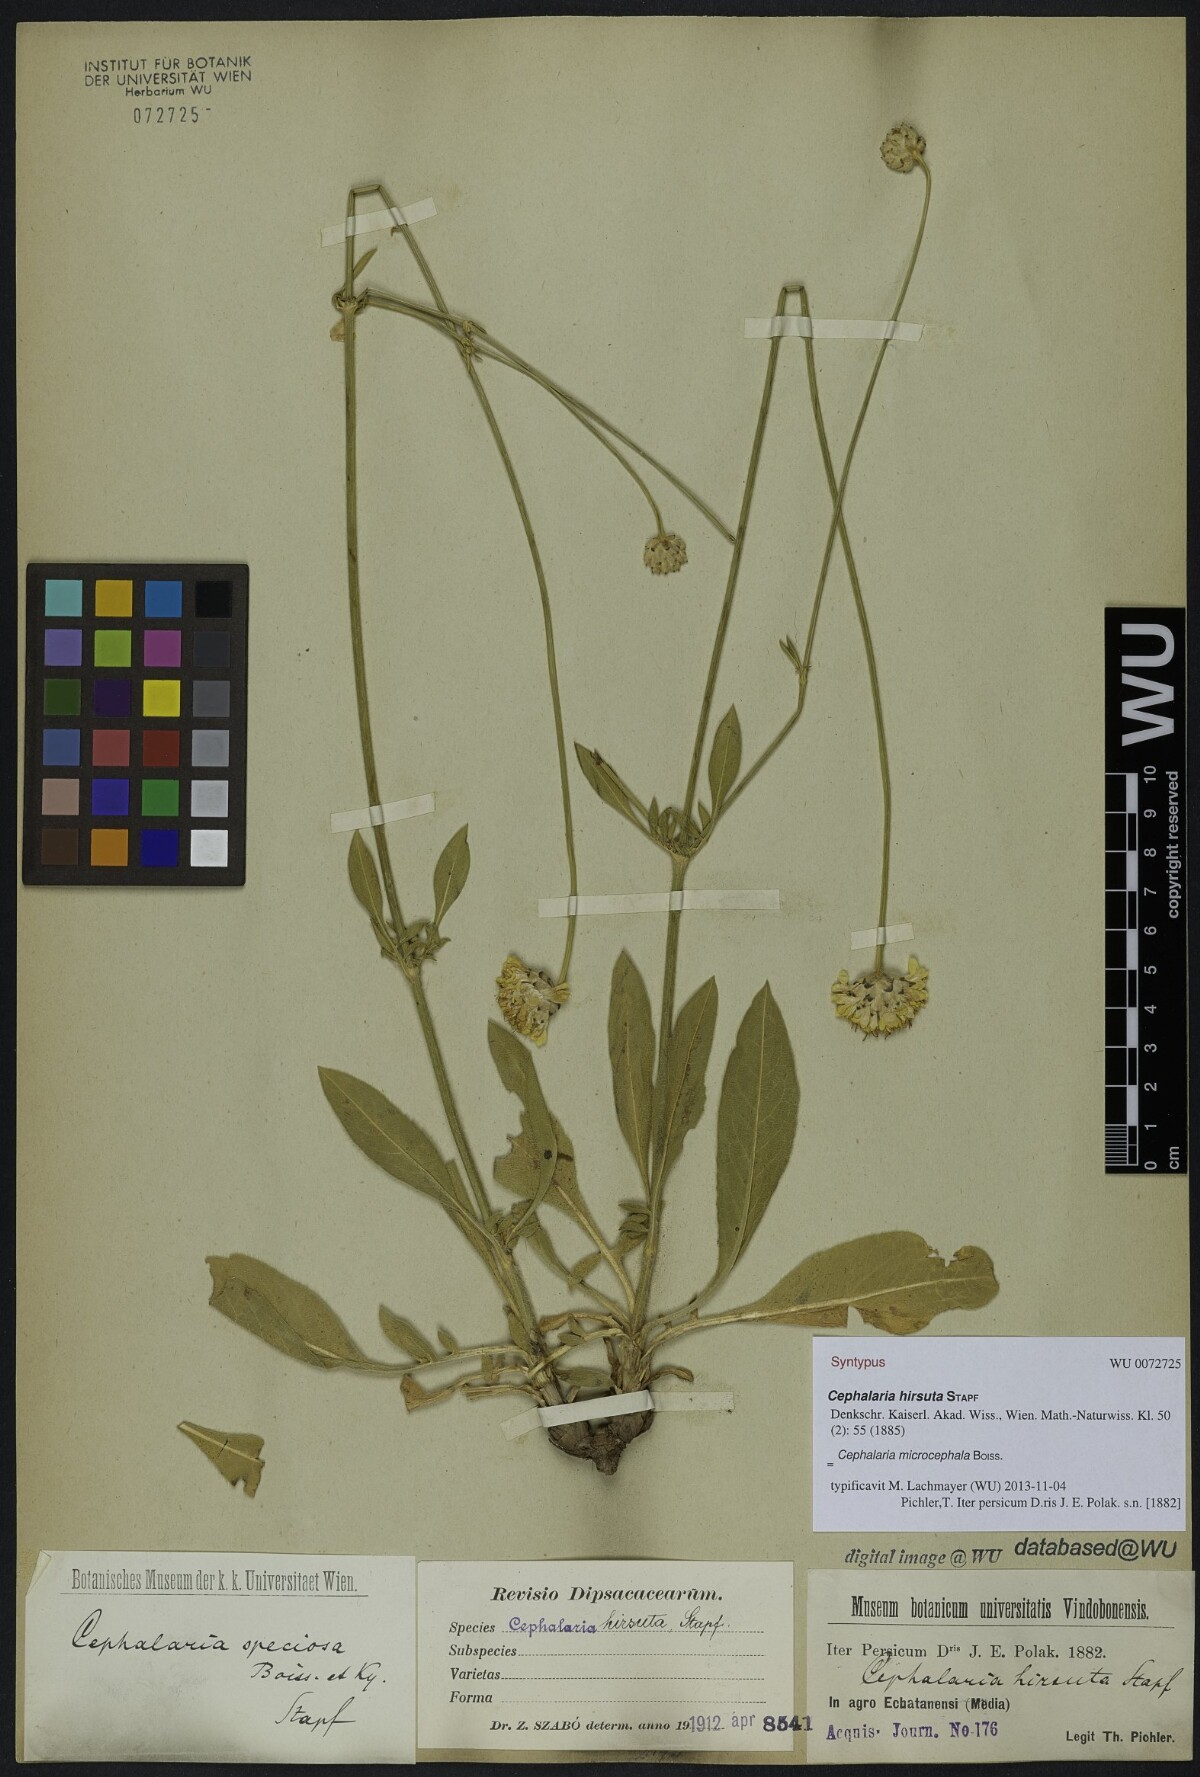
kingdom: Plantae
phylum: Tracheophyta
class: Magnoliopsida
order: Dipsacales
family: Caprifoliaceae
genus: Cephalaria
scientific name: Cephalaria hirsuta
